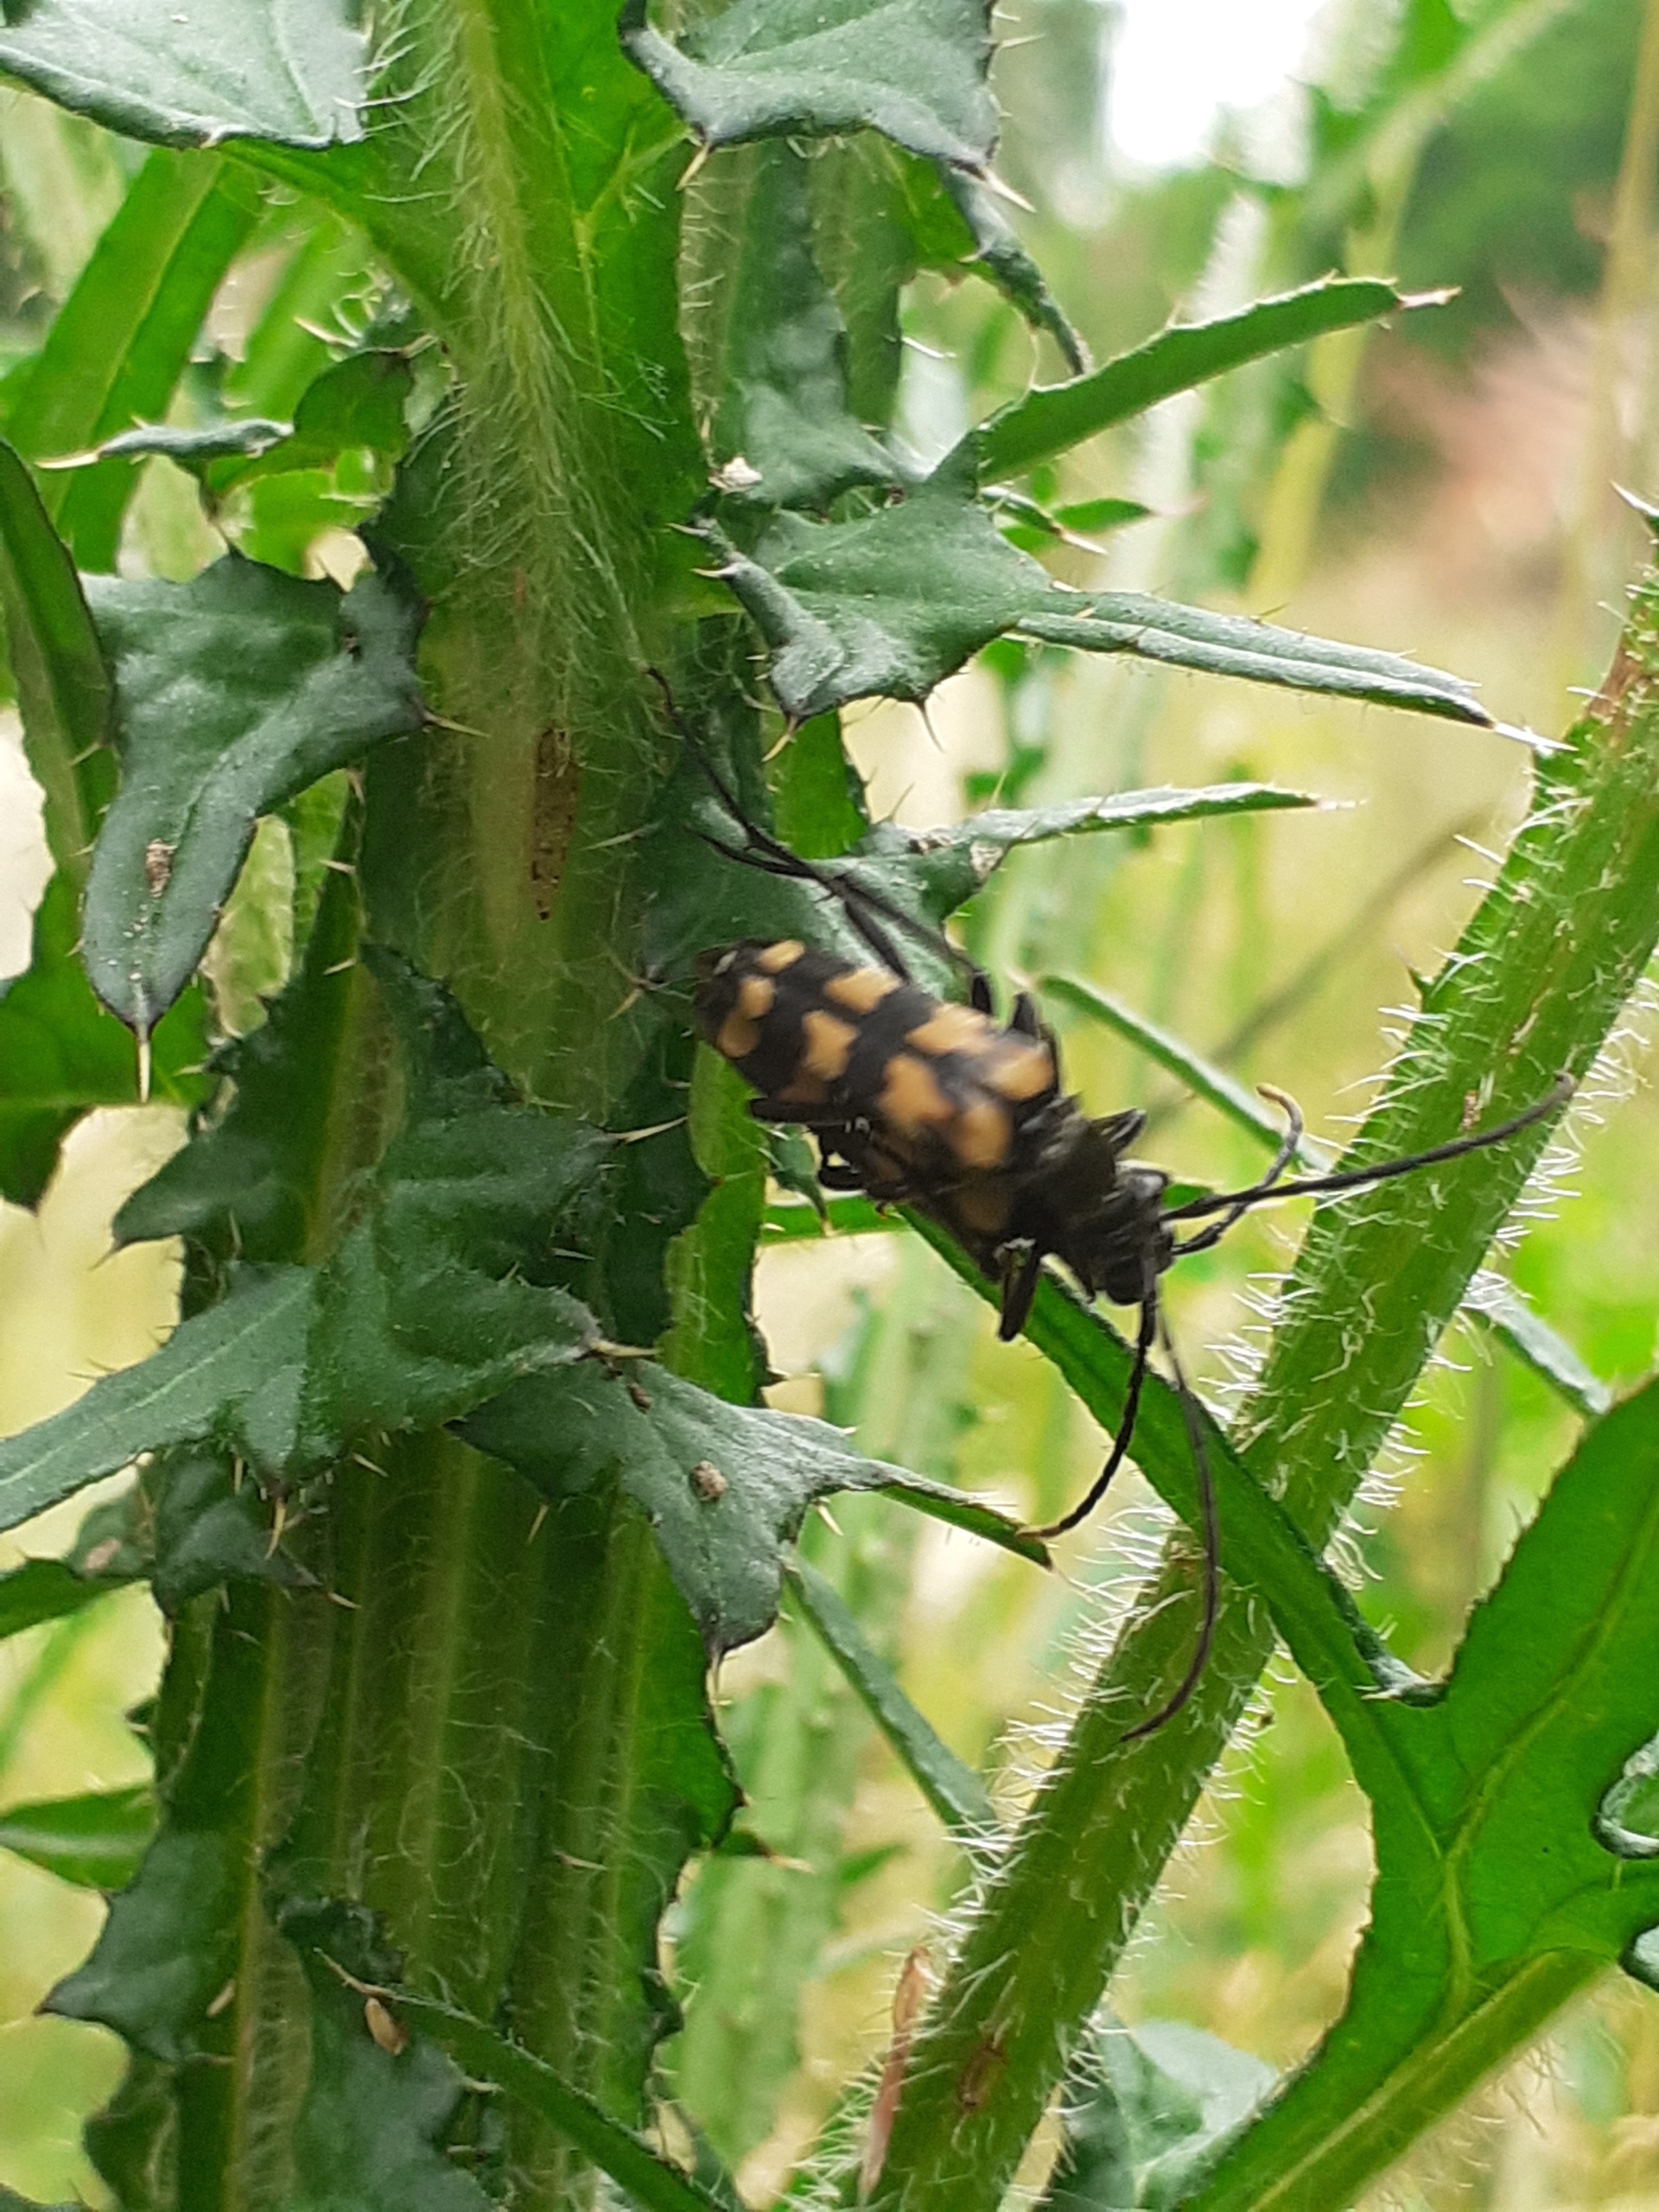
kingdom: Animalia
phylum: Arthropoda
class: Insecta
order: Coleoptera
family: Cerambycidae
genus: Leptura
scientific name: Leptura quadrifasciata
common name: Firebåndet blomsterbuk
